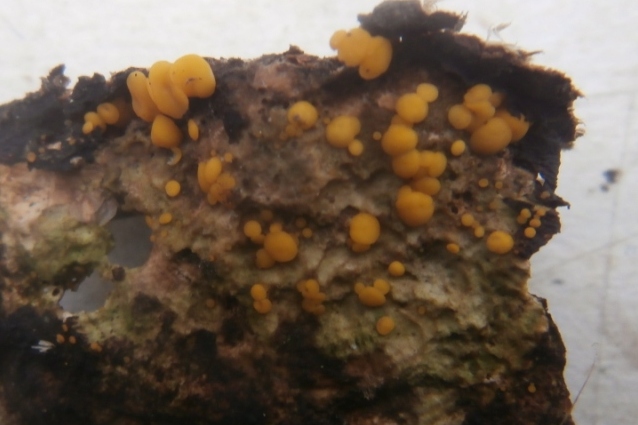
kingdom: Fungi
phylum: Ascomycota
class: Leotiomycetes
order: Helotiales
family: Pezizellaceae
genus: Calycina
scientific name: Calycina citrina
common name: almindelig gulskive
